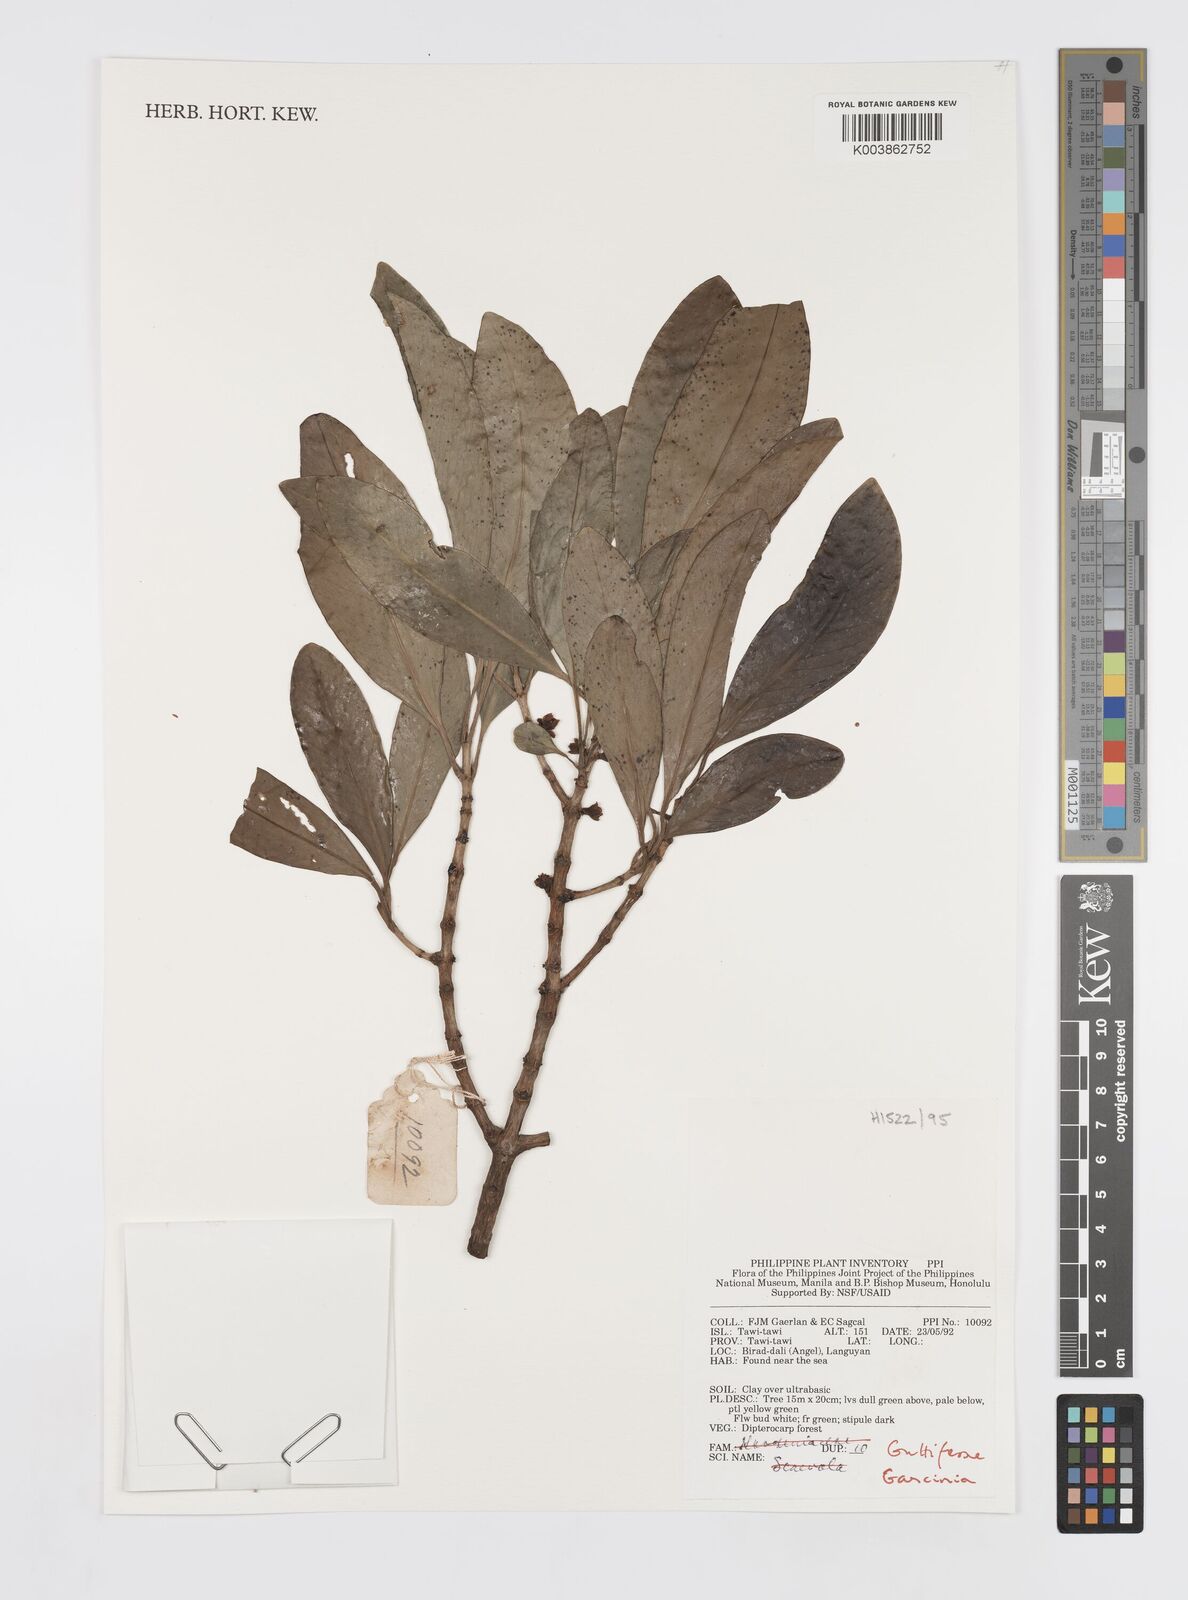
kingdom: Plantae
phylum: Tracheophyta
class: Magnoliopsida
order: Malpighiales
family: Clusiaceae
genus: Garcinia
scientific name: Garcinia
